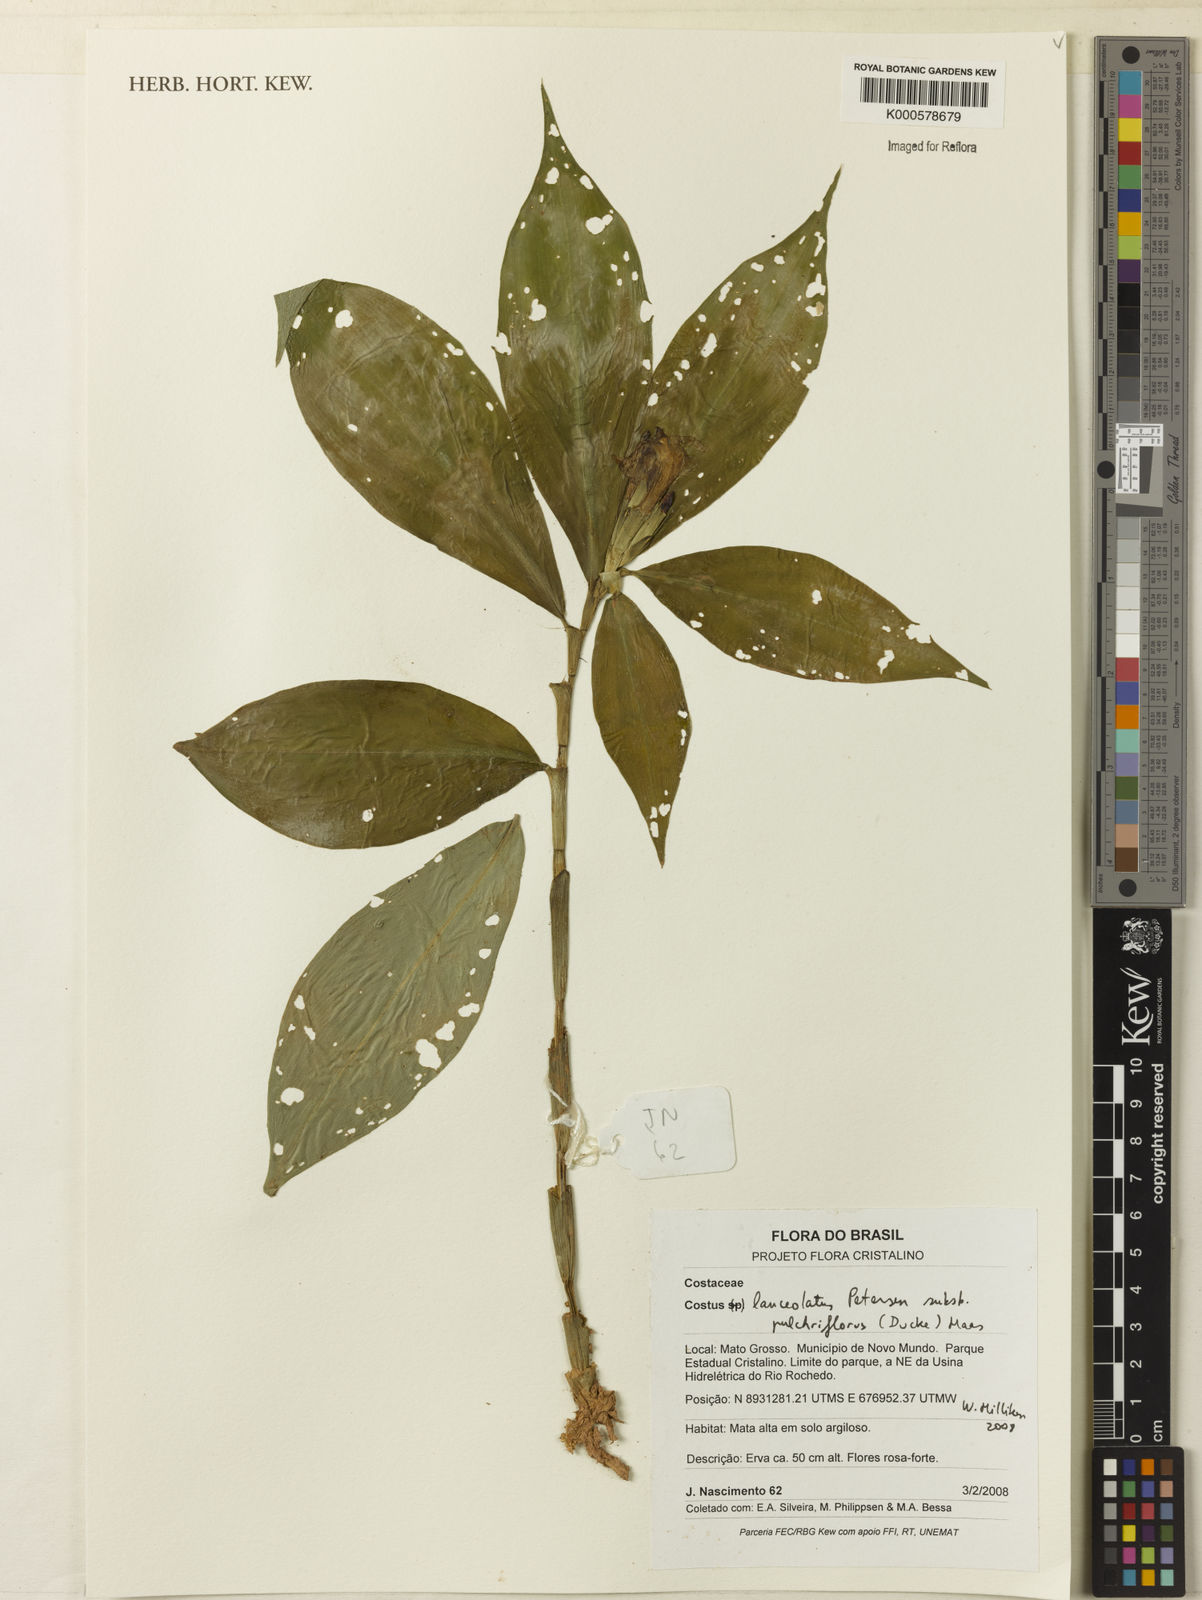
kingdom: Plantae
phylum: Tracheophyta
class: Liliopsida
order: Zingiberales
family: Costaceae
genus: Chamaecostus
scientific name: Chamaecostus lanceolatus
